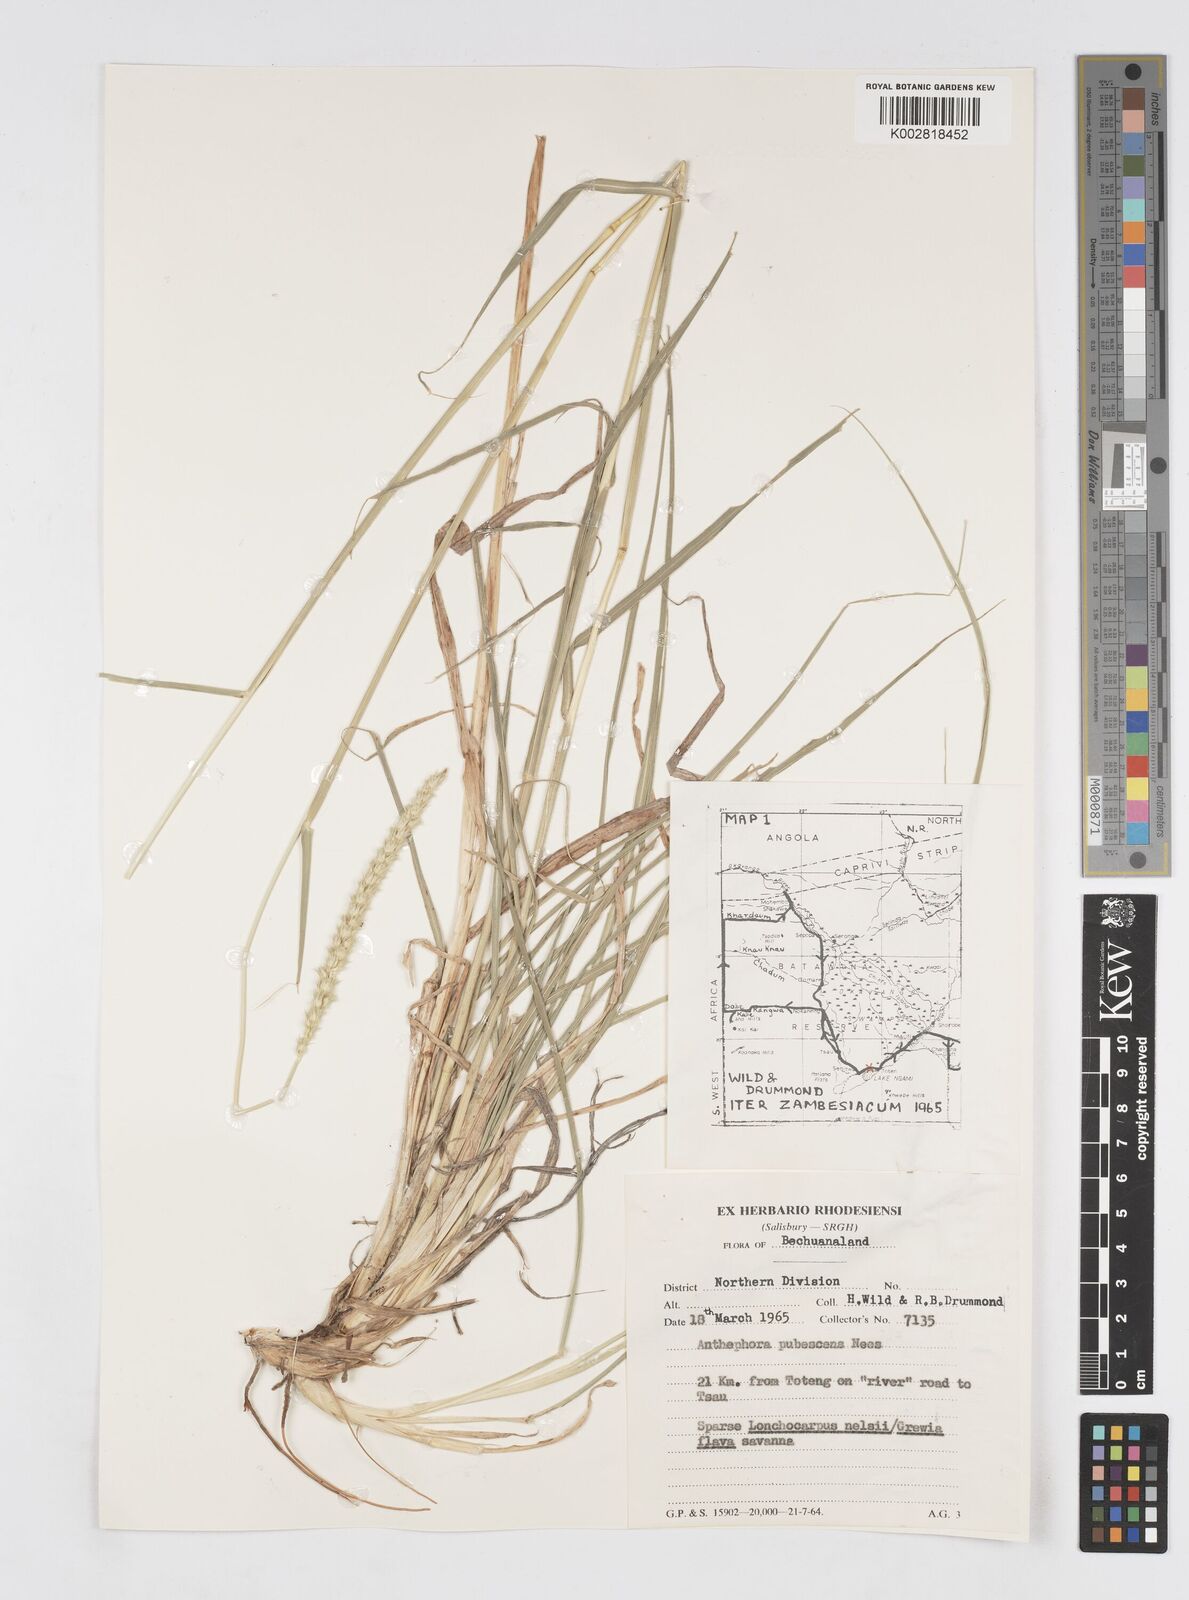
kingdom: Plantae
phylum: Tracheophyta
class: Liliopsida
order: Poales
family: Poaceae
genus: Anthephora
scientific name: Anthephora pubescens
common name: Wool grass
